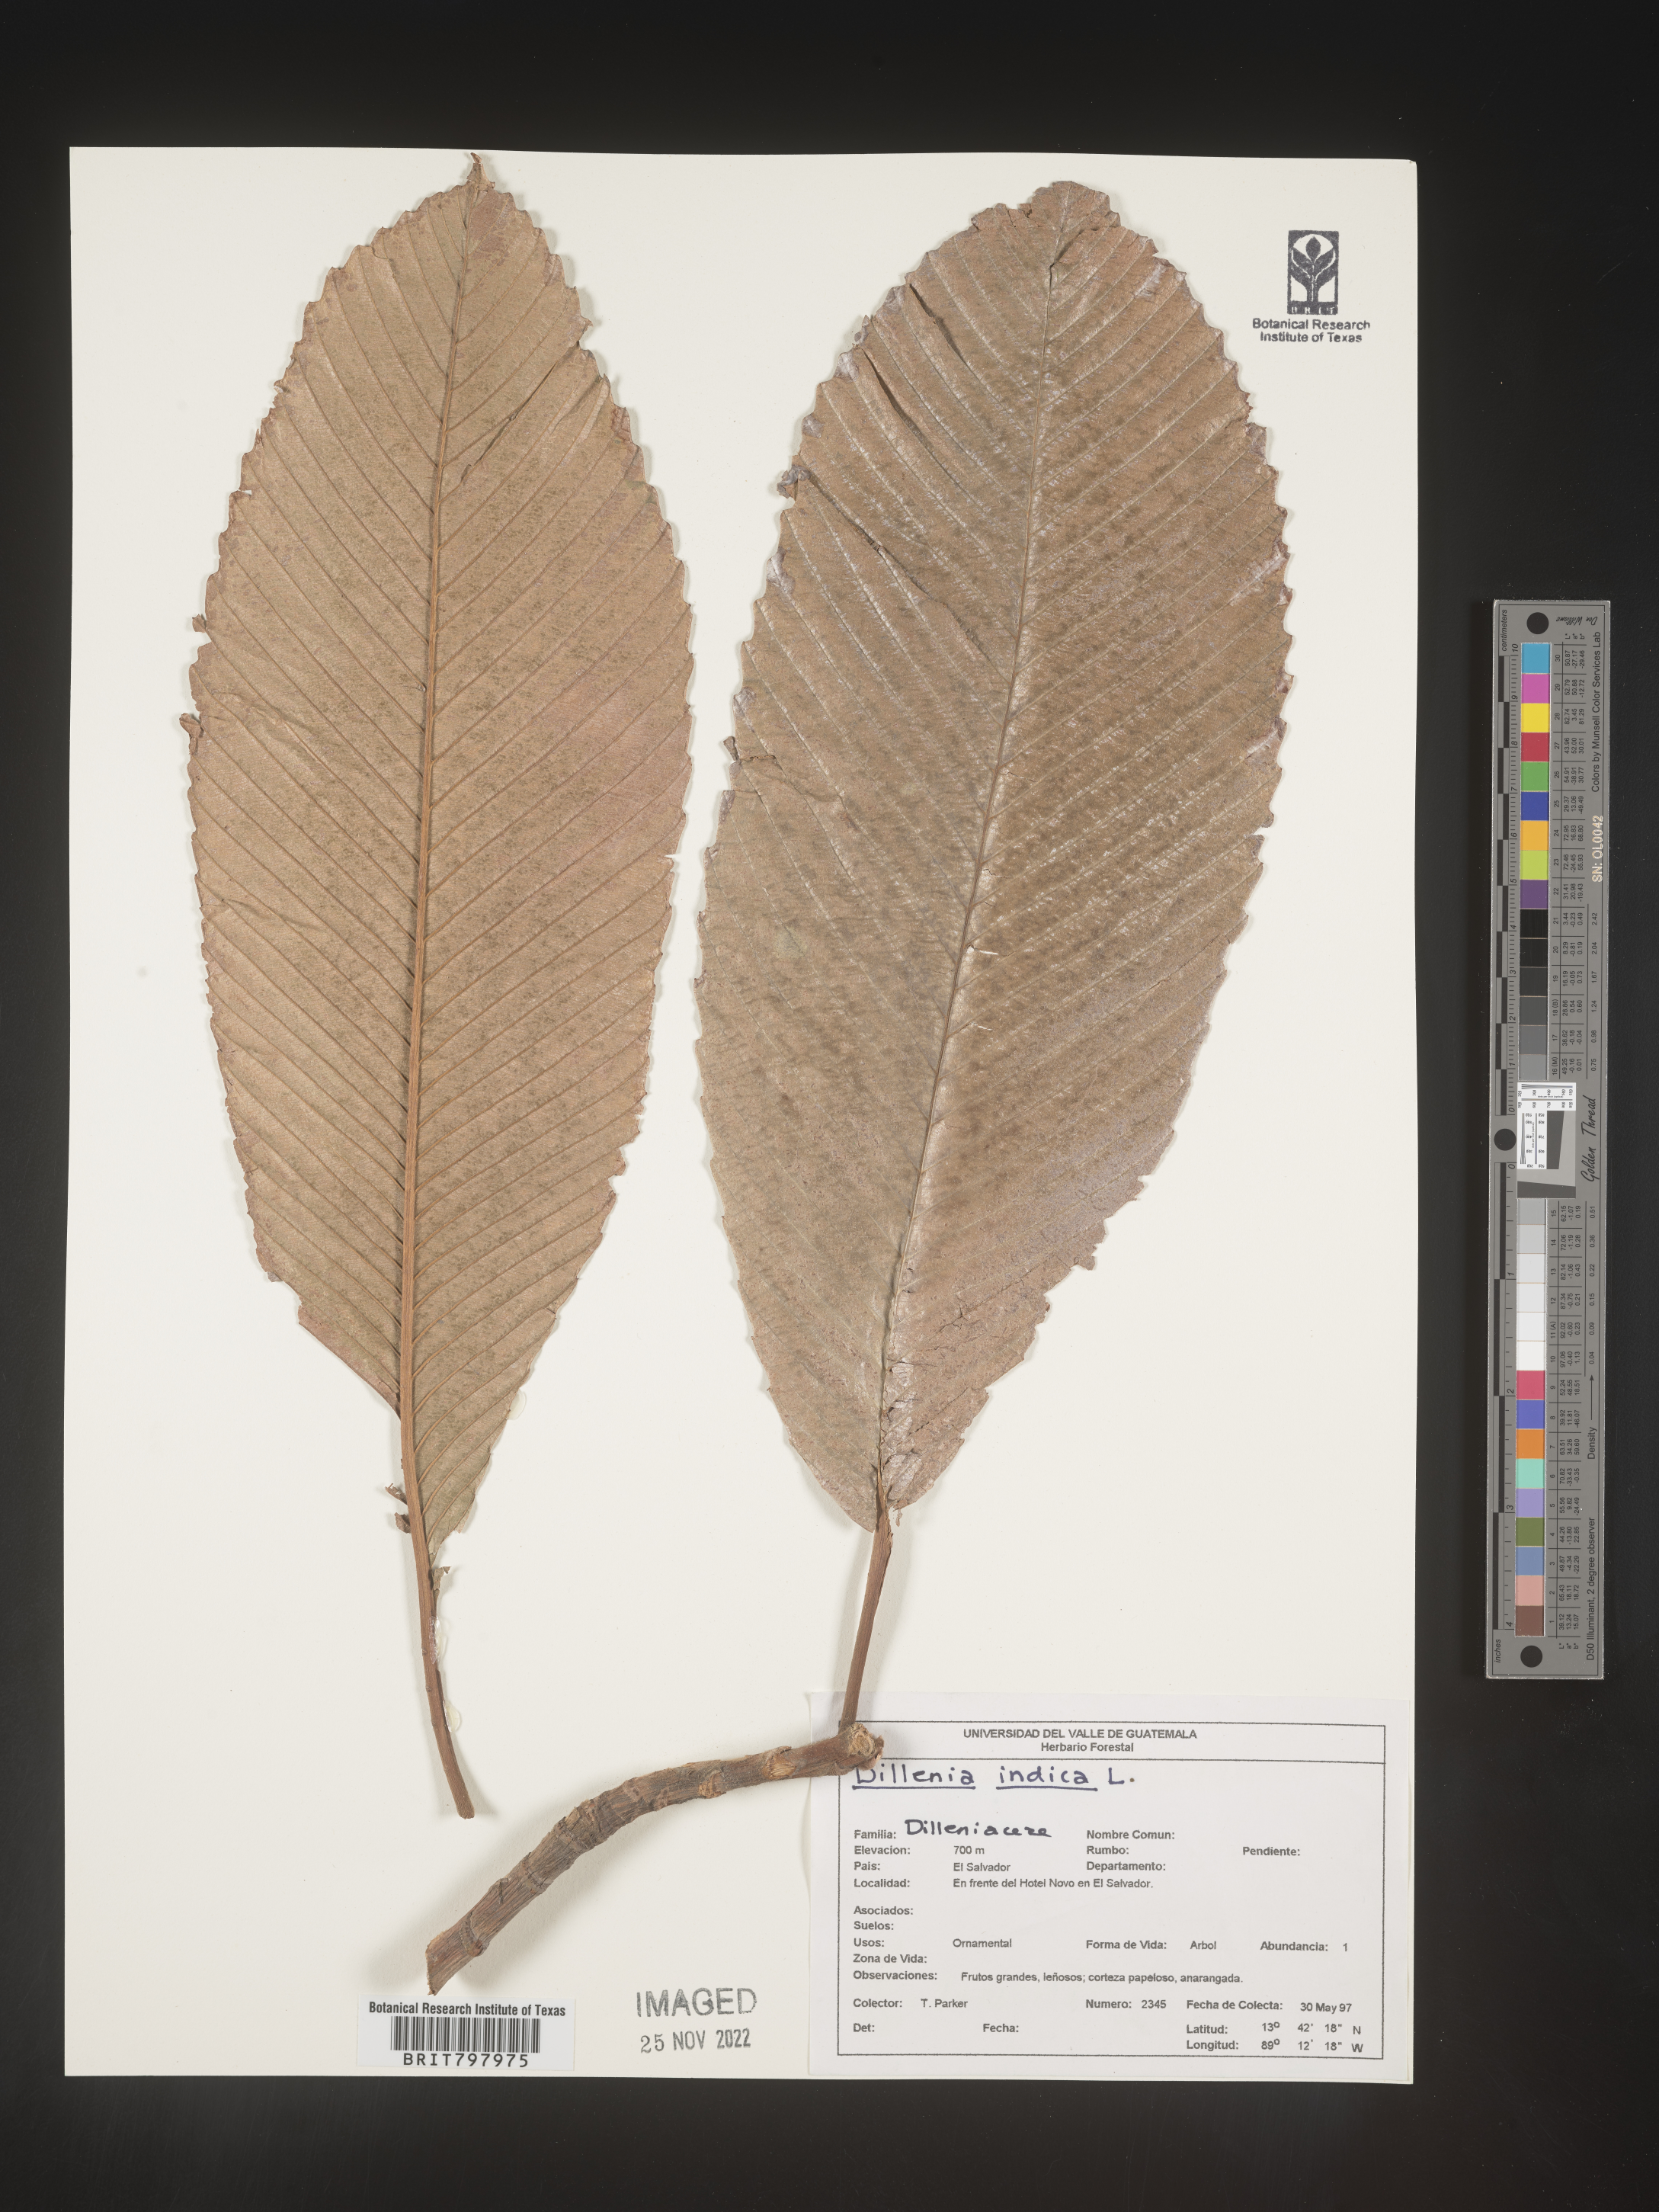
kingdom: Plantae
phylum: Tracheophyta
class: Magnoliopsida
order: Dilleniales
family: Dilleniaceae
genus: Dillenia
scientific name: Dillenia
